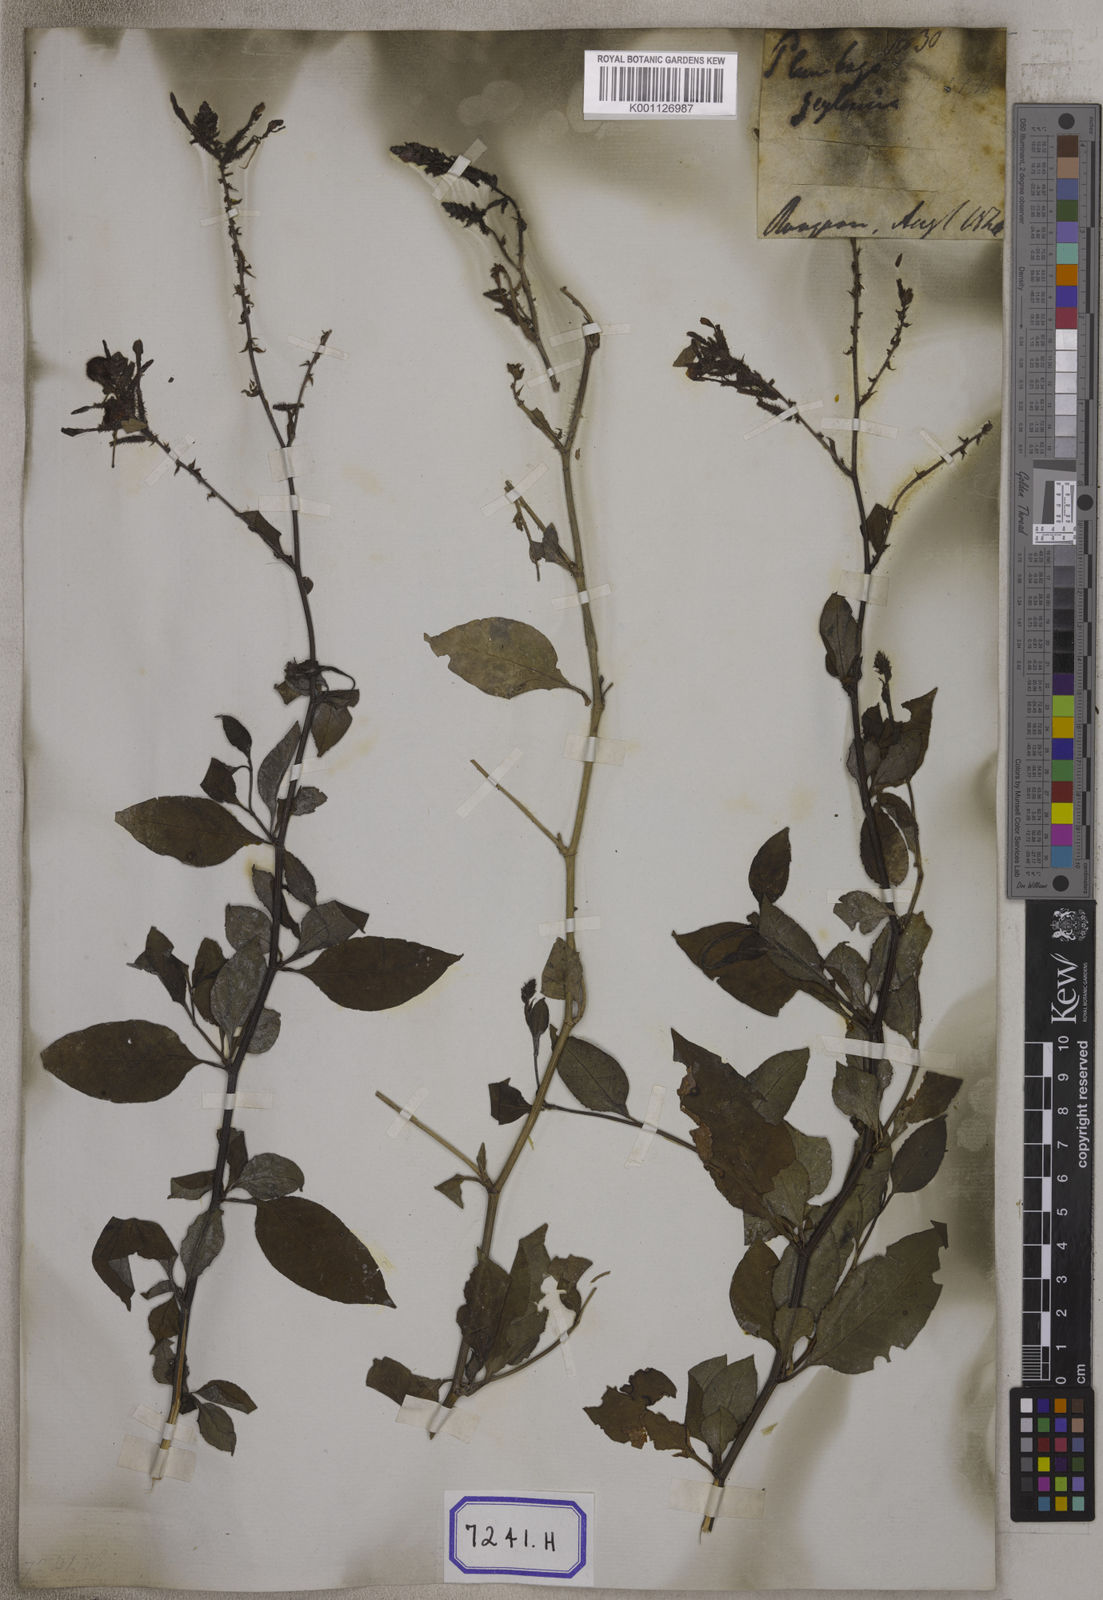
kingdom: Plantae
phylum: Tracheophyta
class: Magnoliopsida
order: Caryophyllales
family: Plumbaginaceae
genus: Plumbago
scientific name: Plumbago zeylanica
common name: Doctorbush
